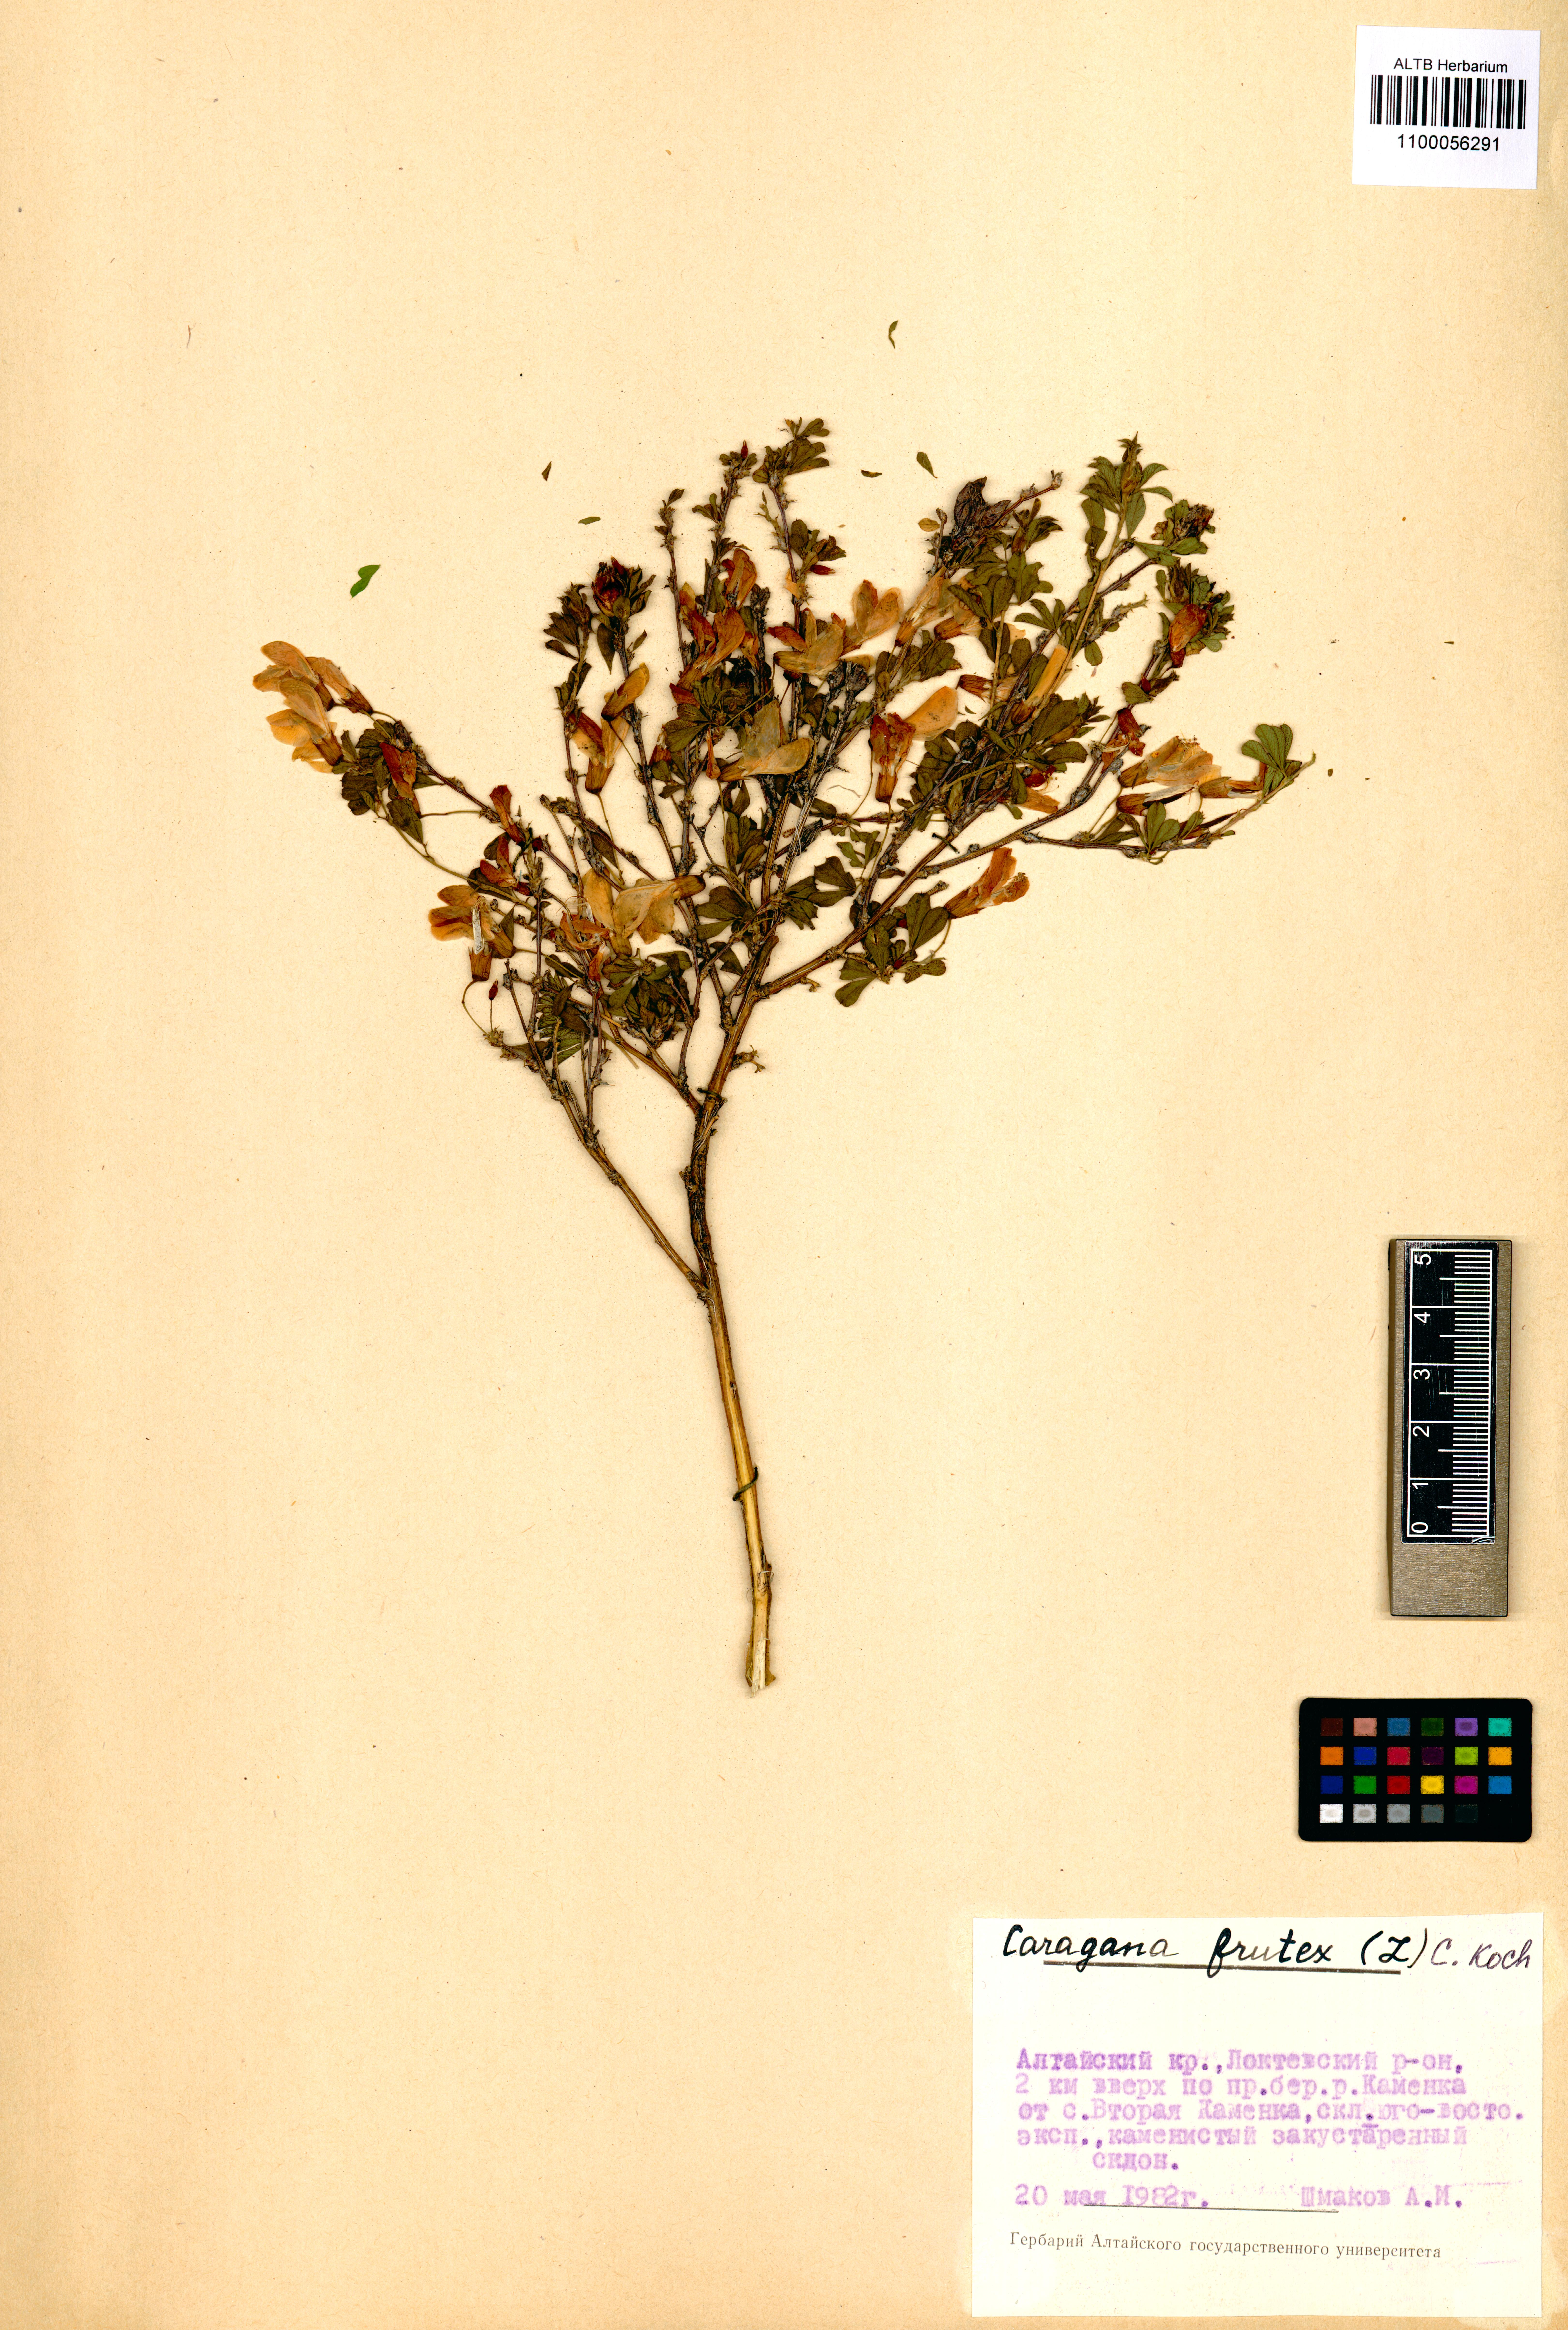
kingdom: Plantae
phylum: Tracheophyta
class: Magnoliopsida
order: Fabales
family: Fabaceae
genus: Caragana
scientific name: Caragana frutex
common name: Russian peashrub
